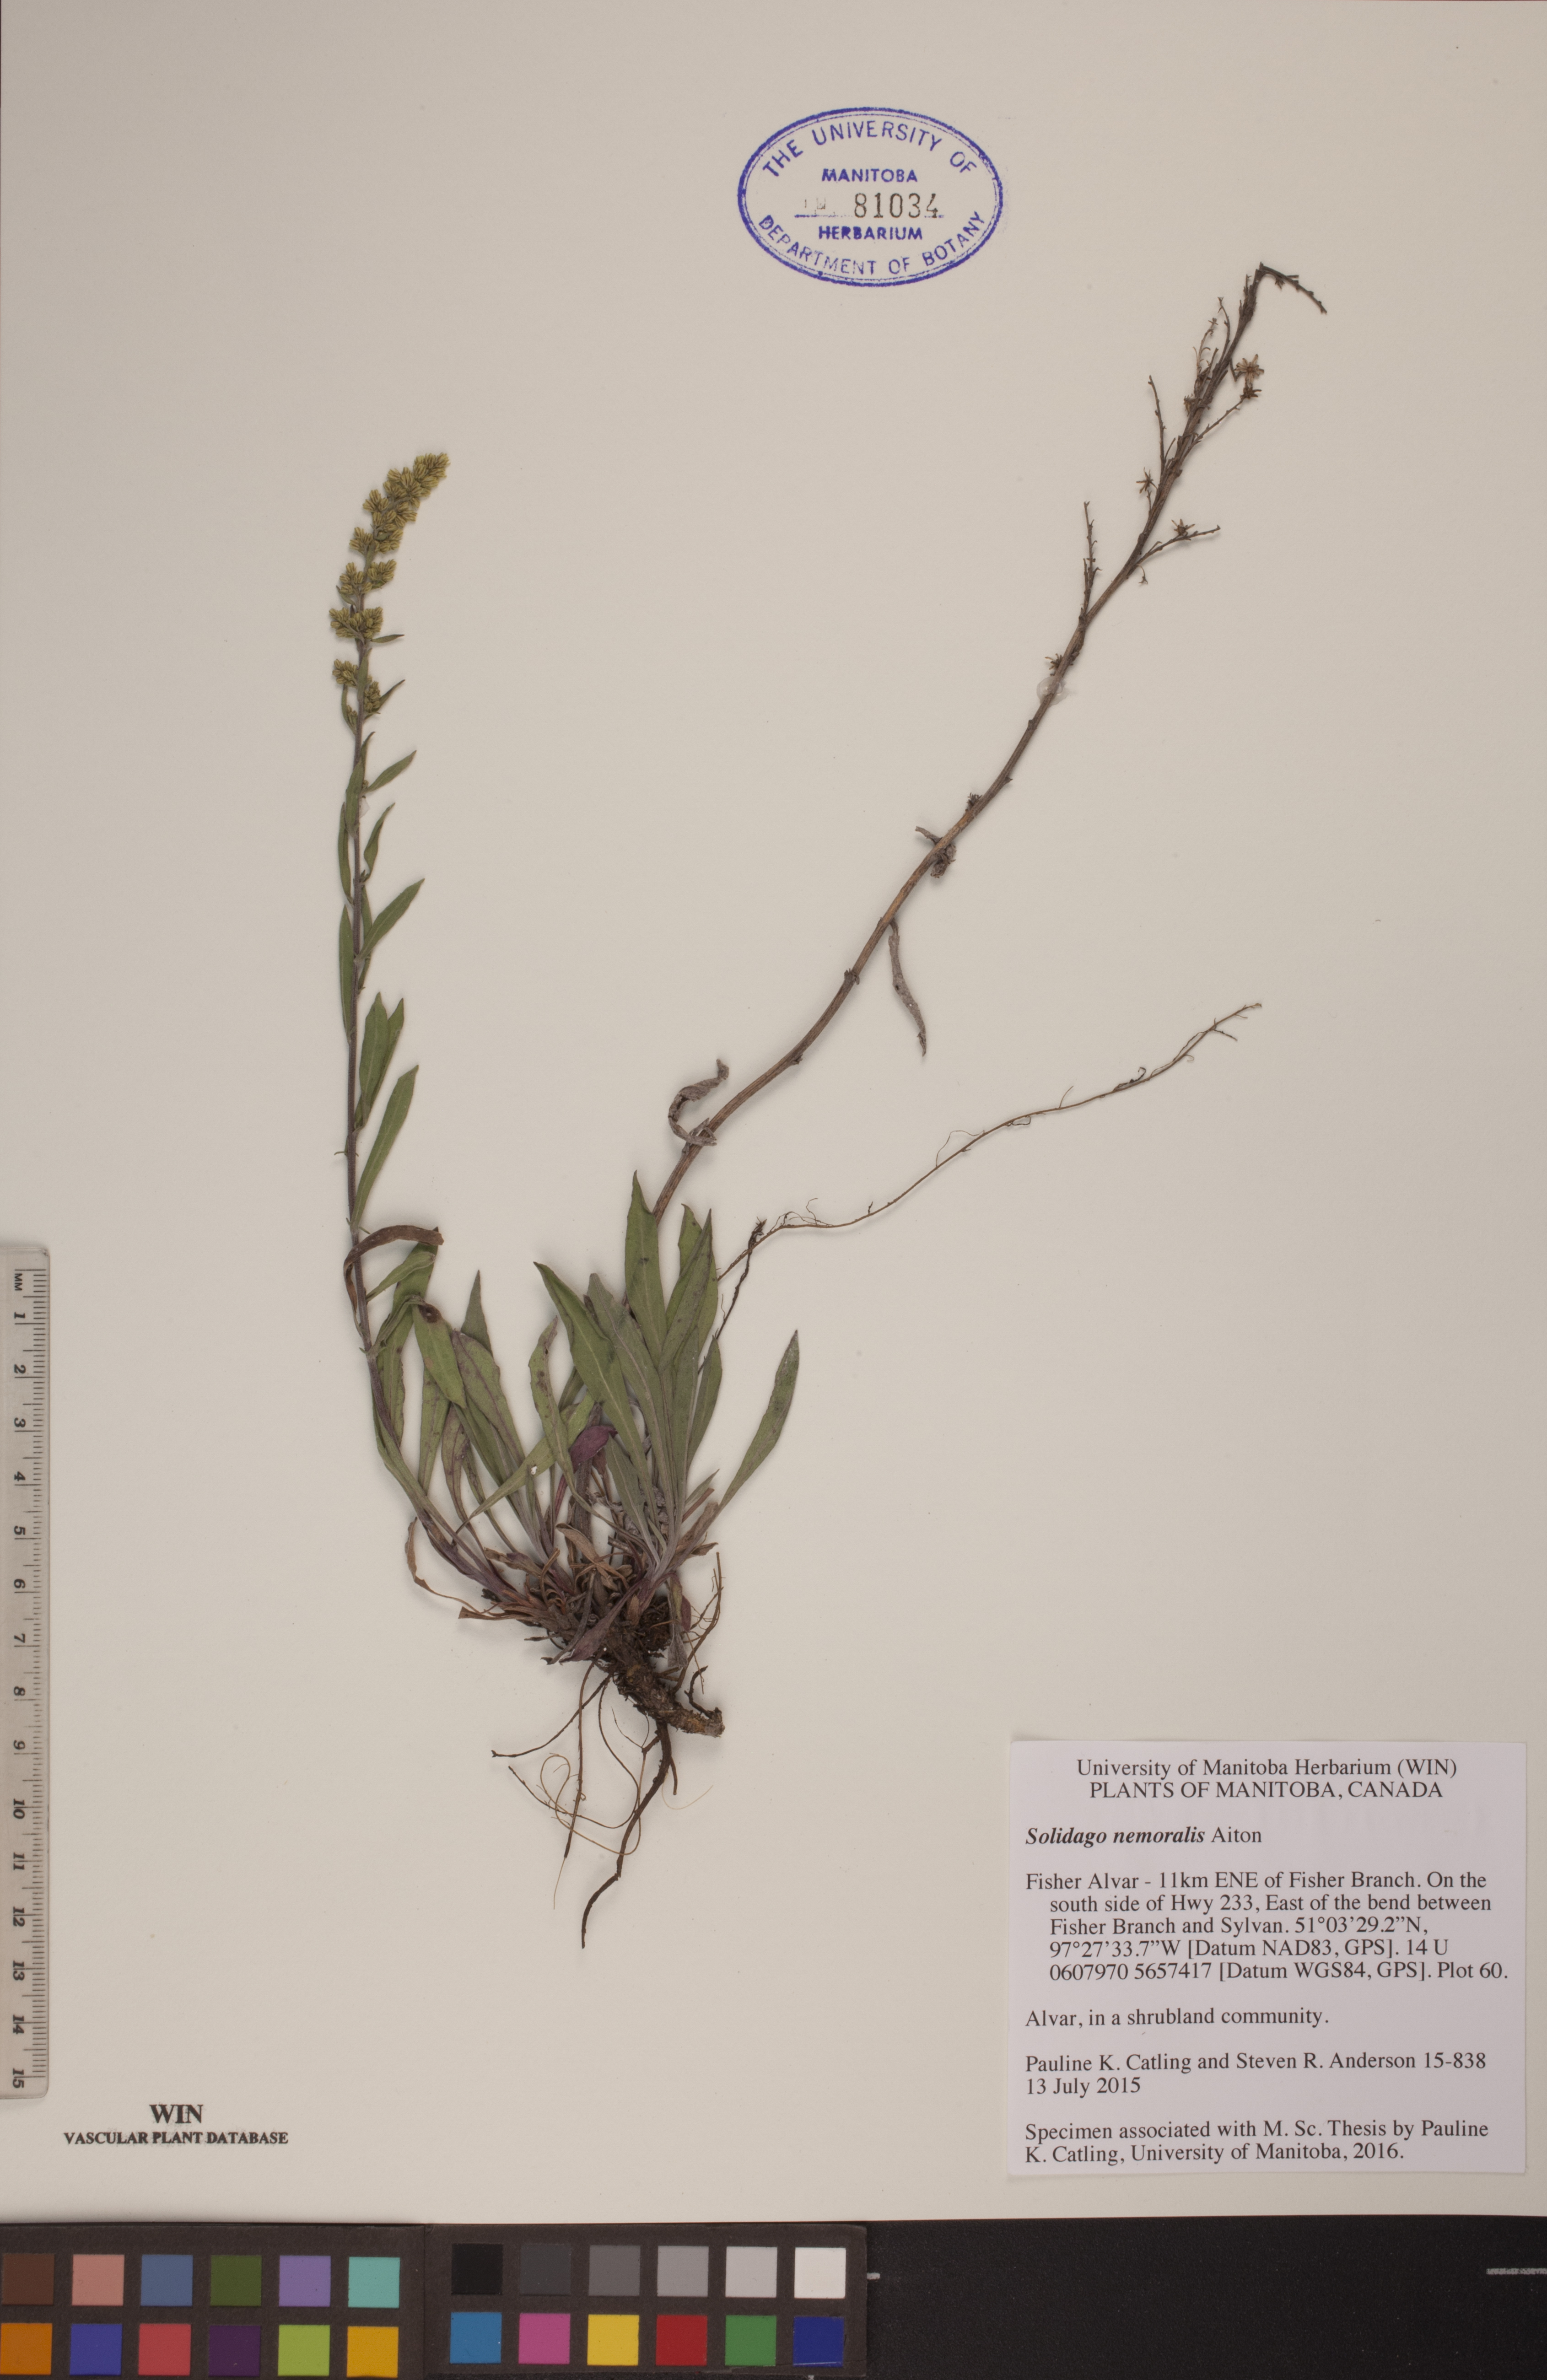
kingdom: Plantae
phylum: Tracheophyta
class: Magnoliopsida
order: Asterales
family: Asteraceae
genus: Solidago
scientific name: Solidago nemoralis
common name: Grey goldenrod
